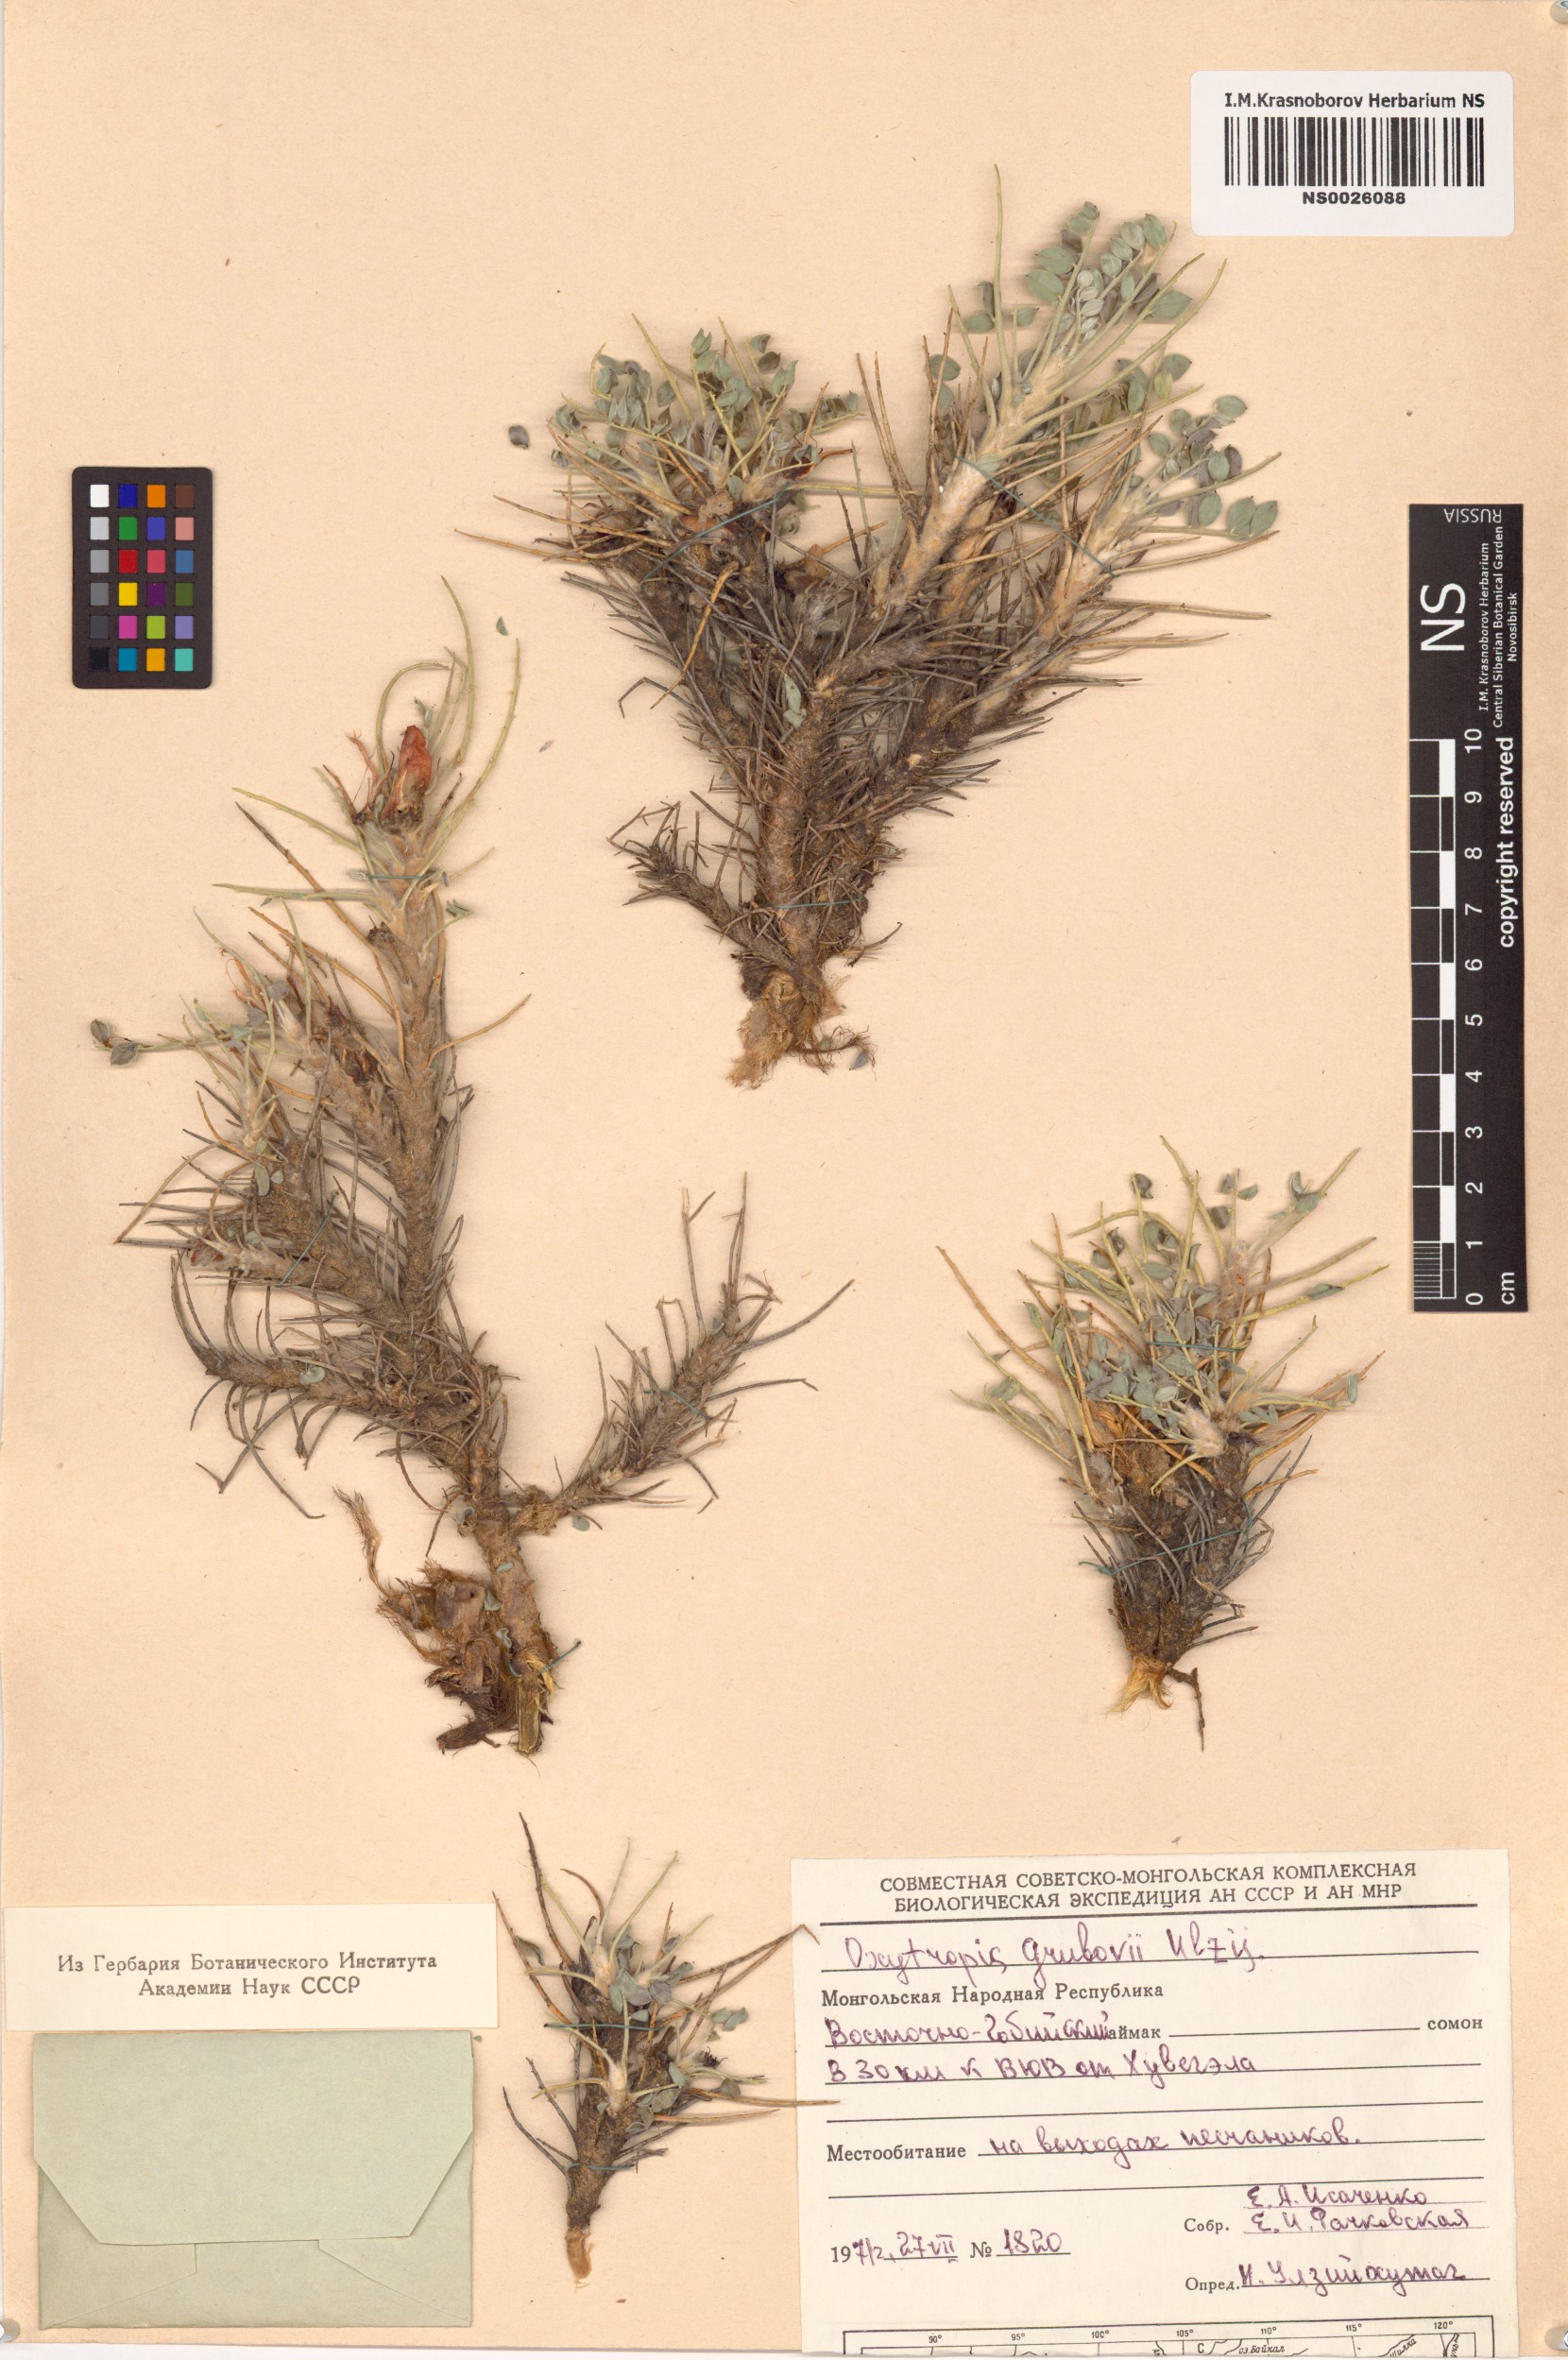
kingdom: Plantae
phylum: Tracheophyta
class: Magnoliopsida
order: Fabales
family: Fabaceae
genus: Chesneya
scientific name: Chesneya macrantha
